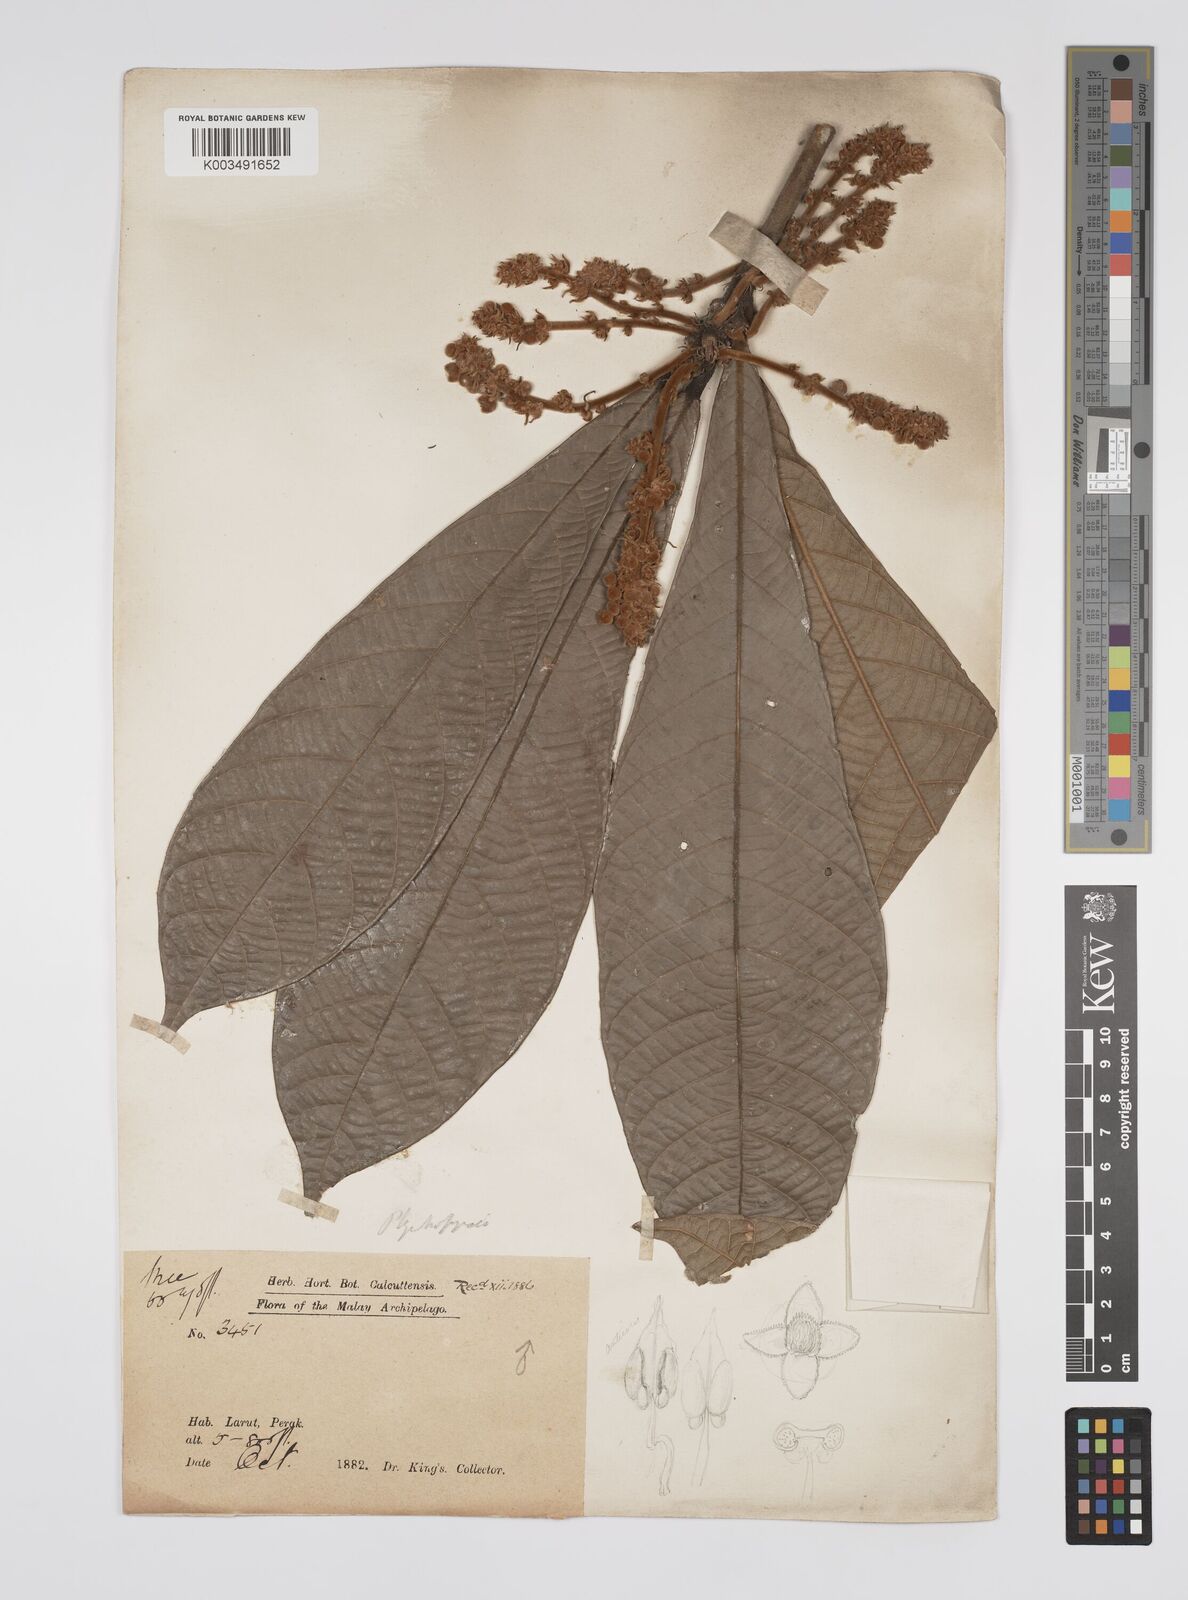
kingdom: Plantae
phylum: Tracheophyta
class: Magnoliopsida
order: Malpighiales
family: Euphorbiaceae
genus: Ptychopyxis
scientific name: Ptychopyxis costata
